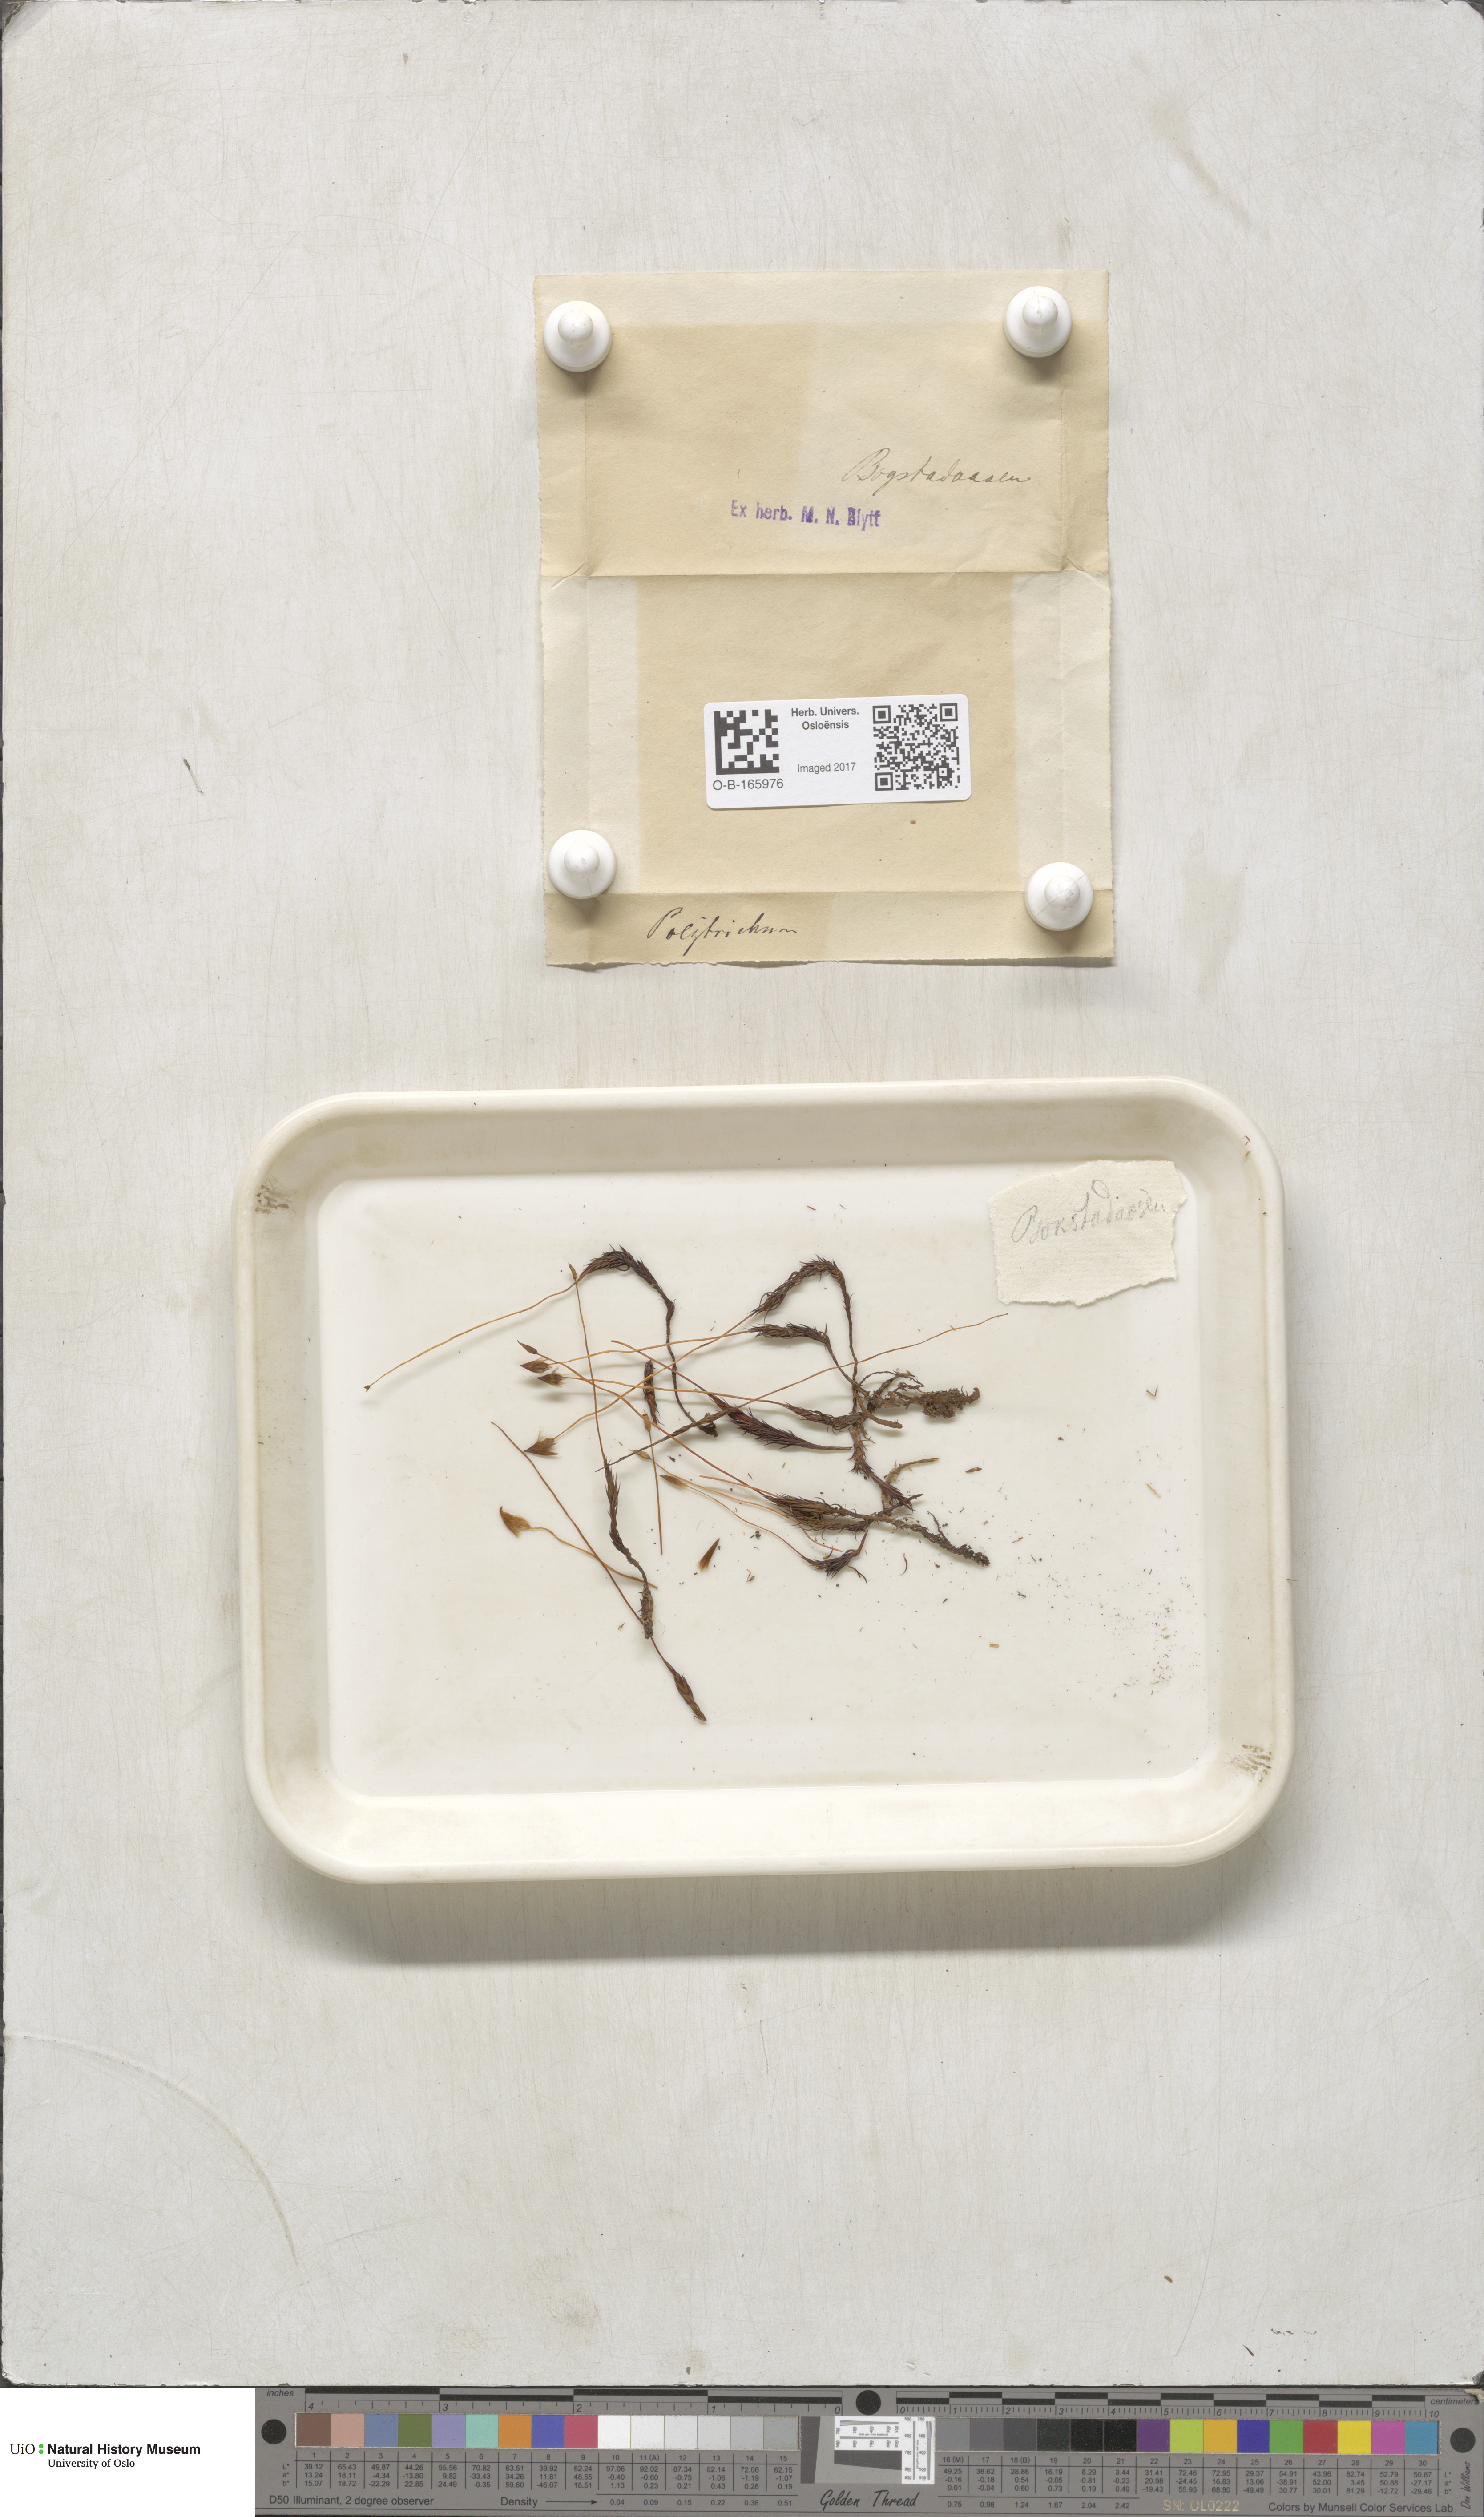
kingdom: Plantae
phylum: Bryophyta
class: Polytrichopsida
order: Polytrichales
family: Polytrichaceae
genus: Polytrichum
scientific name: Polytrichum
